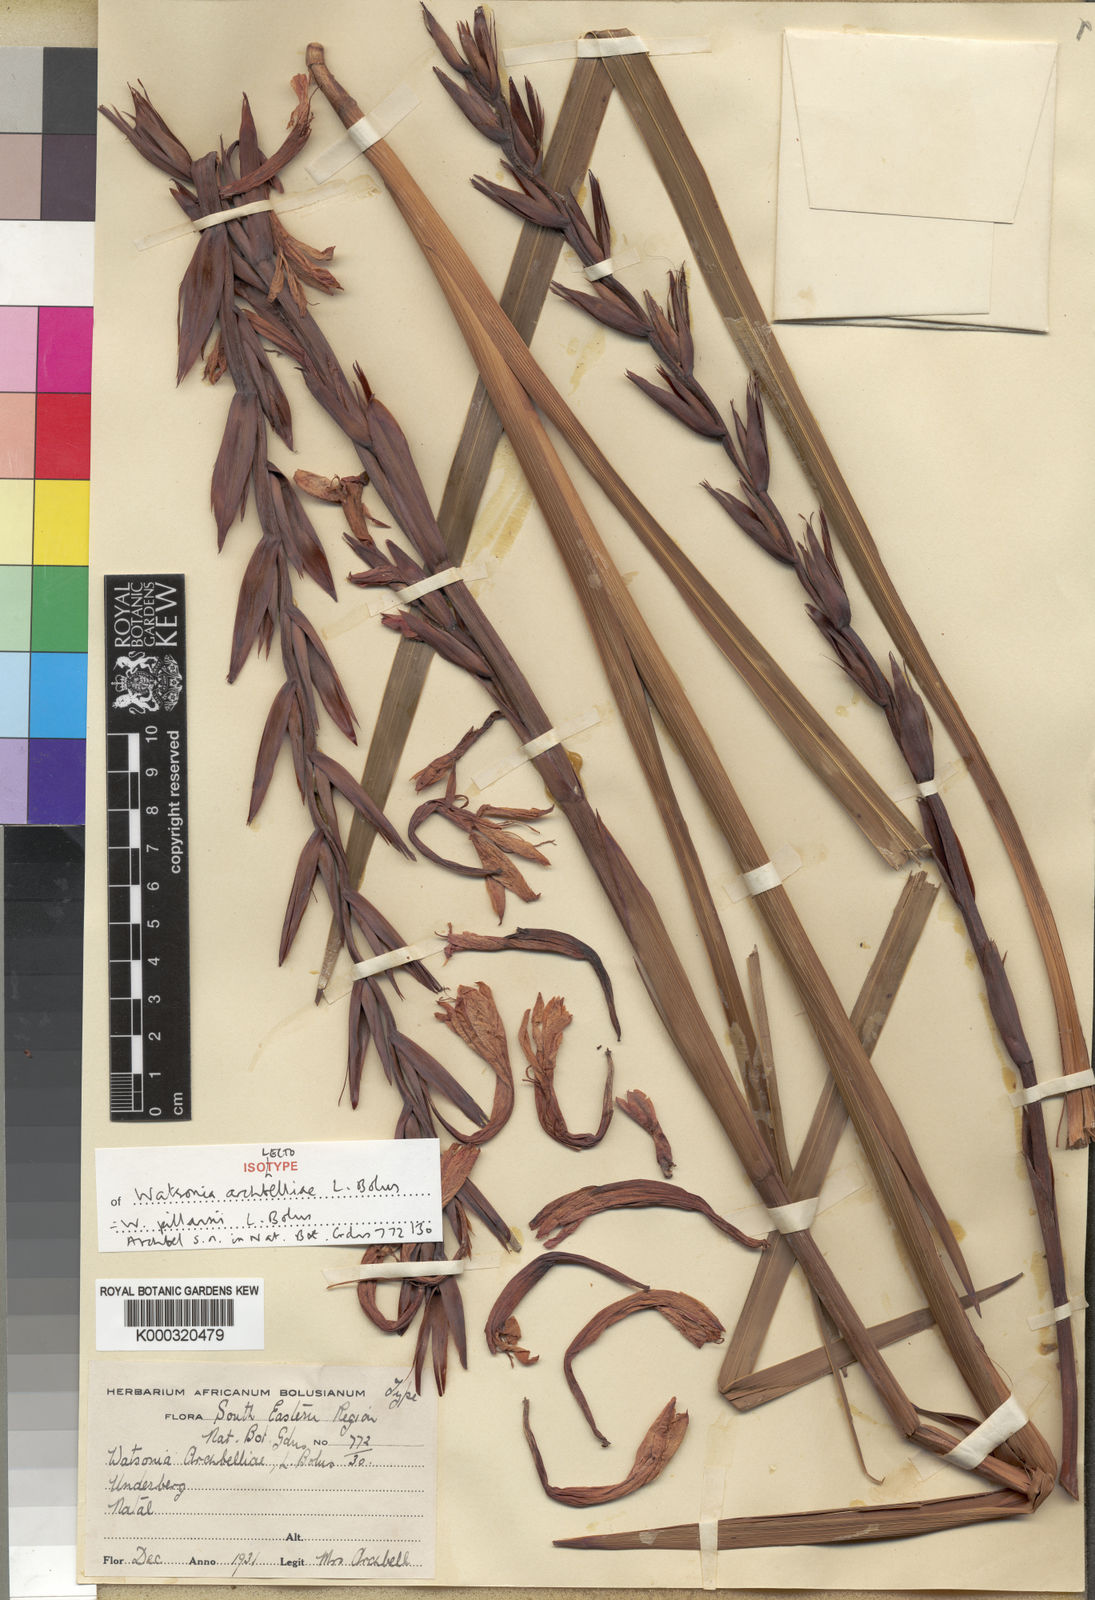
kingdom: Plantae
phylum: Tracheophyta
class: Liliopsida
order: Asparagales
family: Iridaceae
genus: Watsonia
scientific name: Watsonia pillansii
